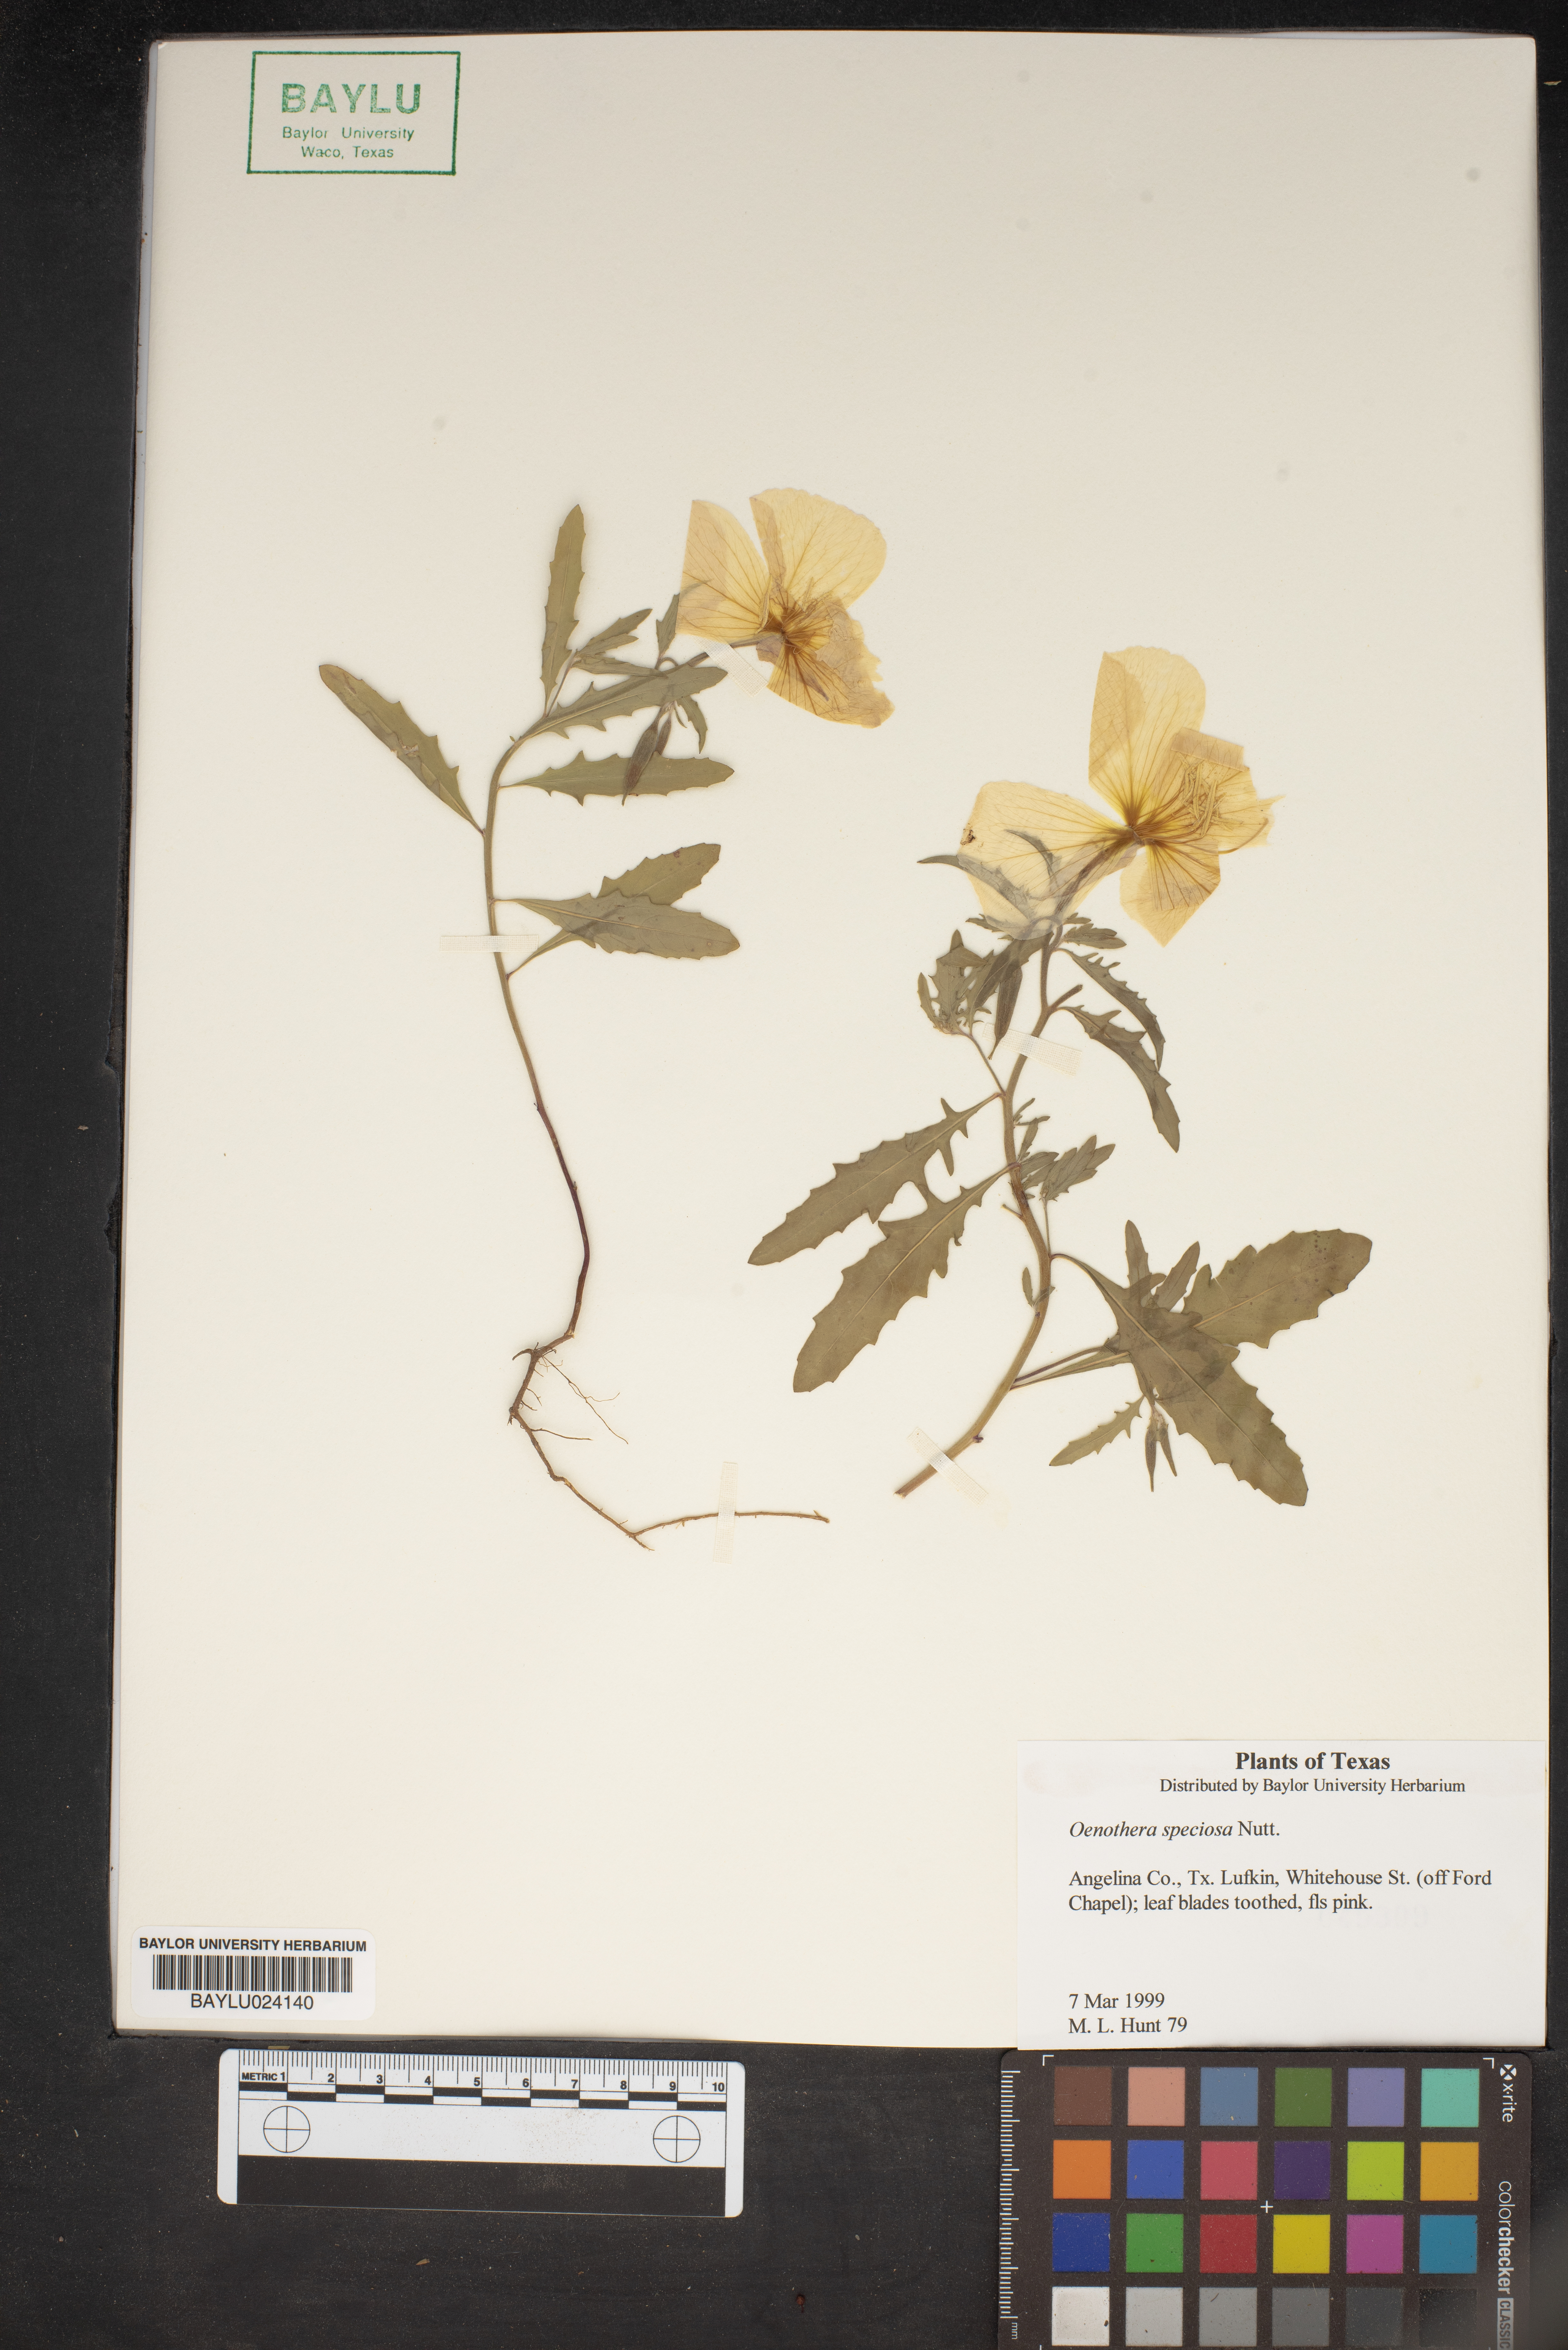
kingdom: Plantae
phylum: Tracheophyta
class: Magnoliopsida
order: Myrtales
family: Onagraceae
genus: Oenothera
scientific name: Oenothera speciosa
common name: White evening-primrose
